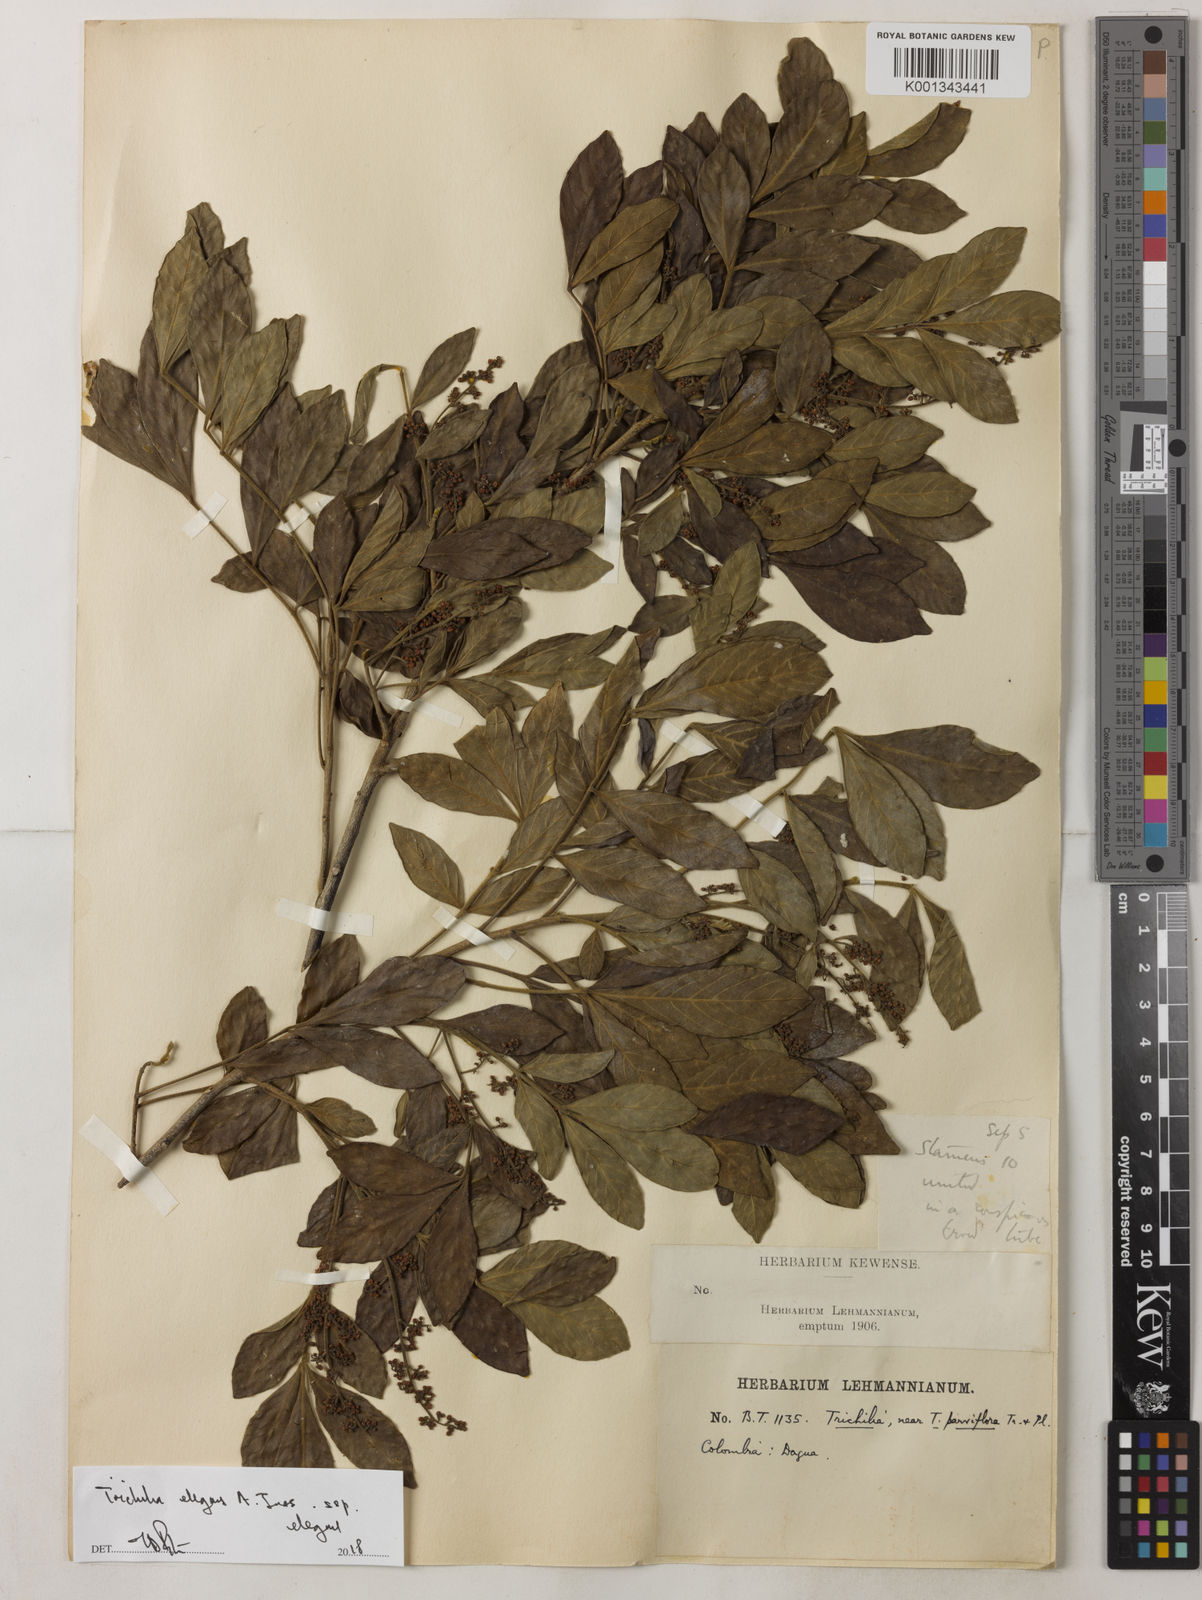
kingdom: Plantae
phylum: Tracheophyta
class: Magnoliopsida
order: Sapindales
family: Meliaceae
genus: Trichilia
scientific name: Trichilia elegans
